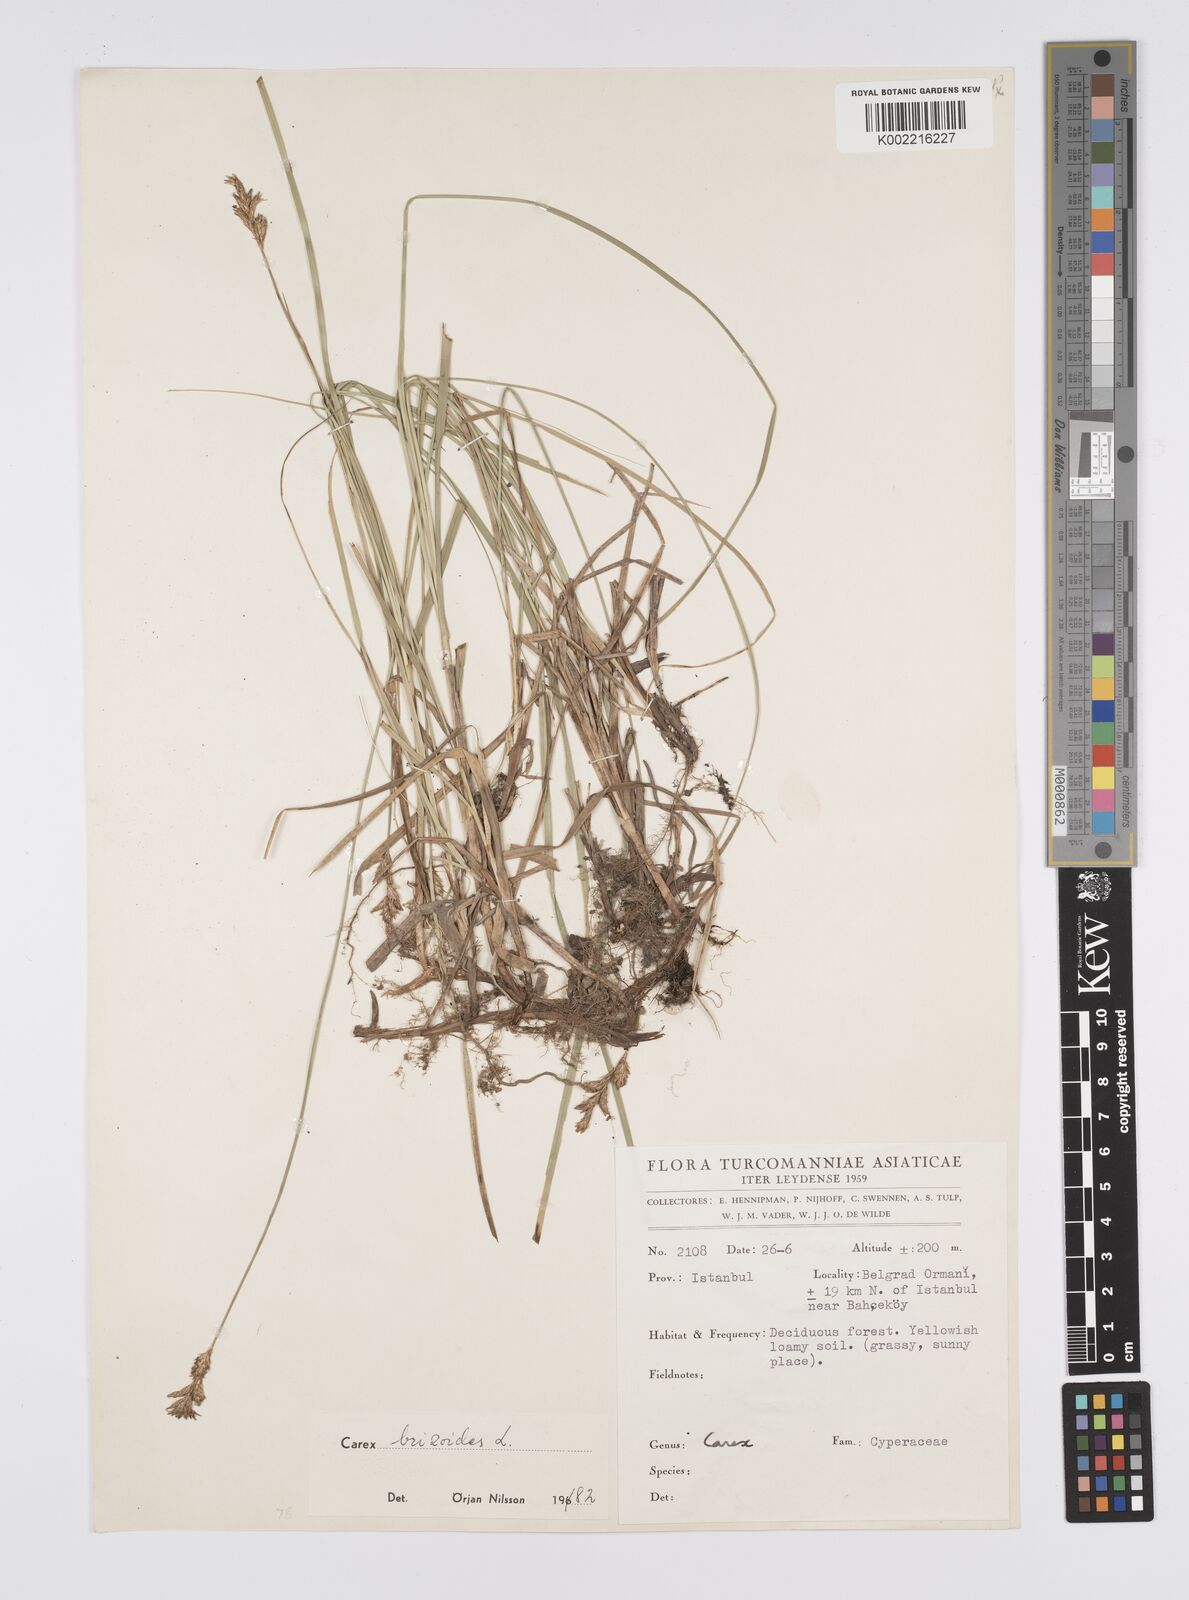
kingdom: Plantae
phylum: Tracheophyta
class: Liliopsida
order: Poales
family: Cyperaceae
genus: Carex
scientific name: Carex brizoides
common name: Quaking-grass sedge
